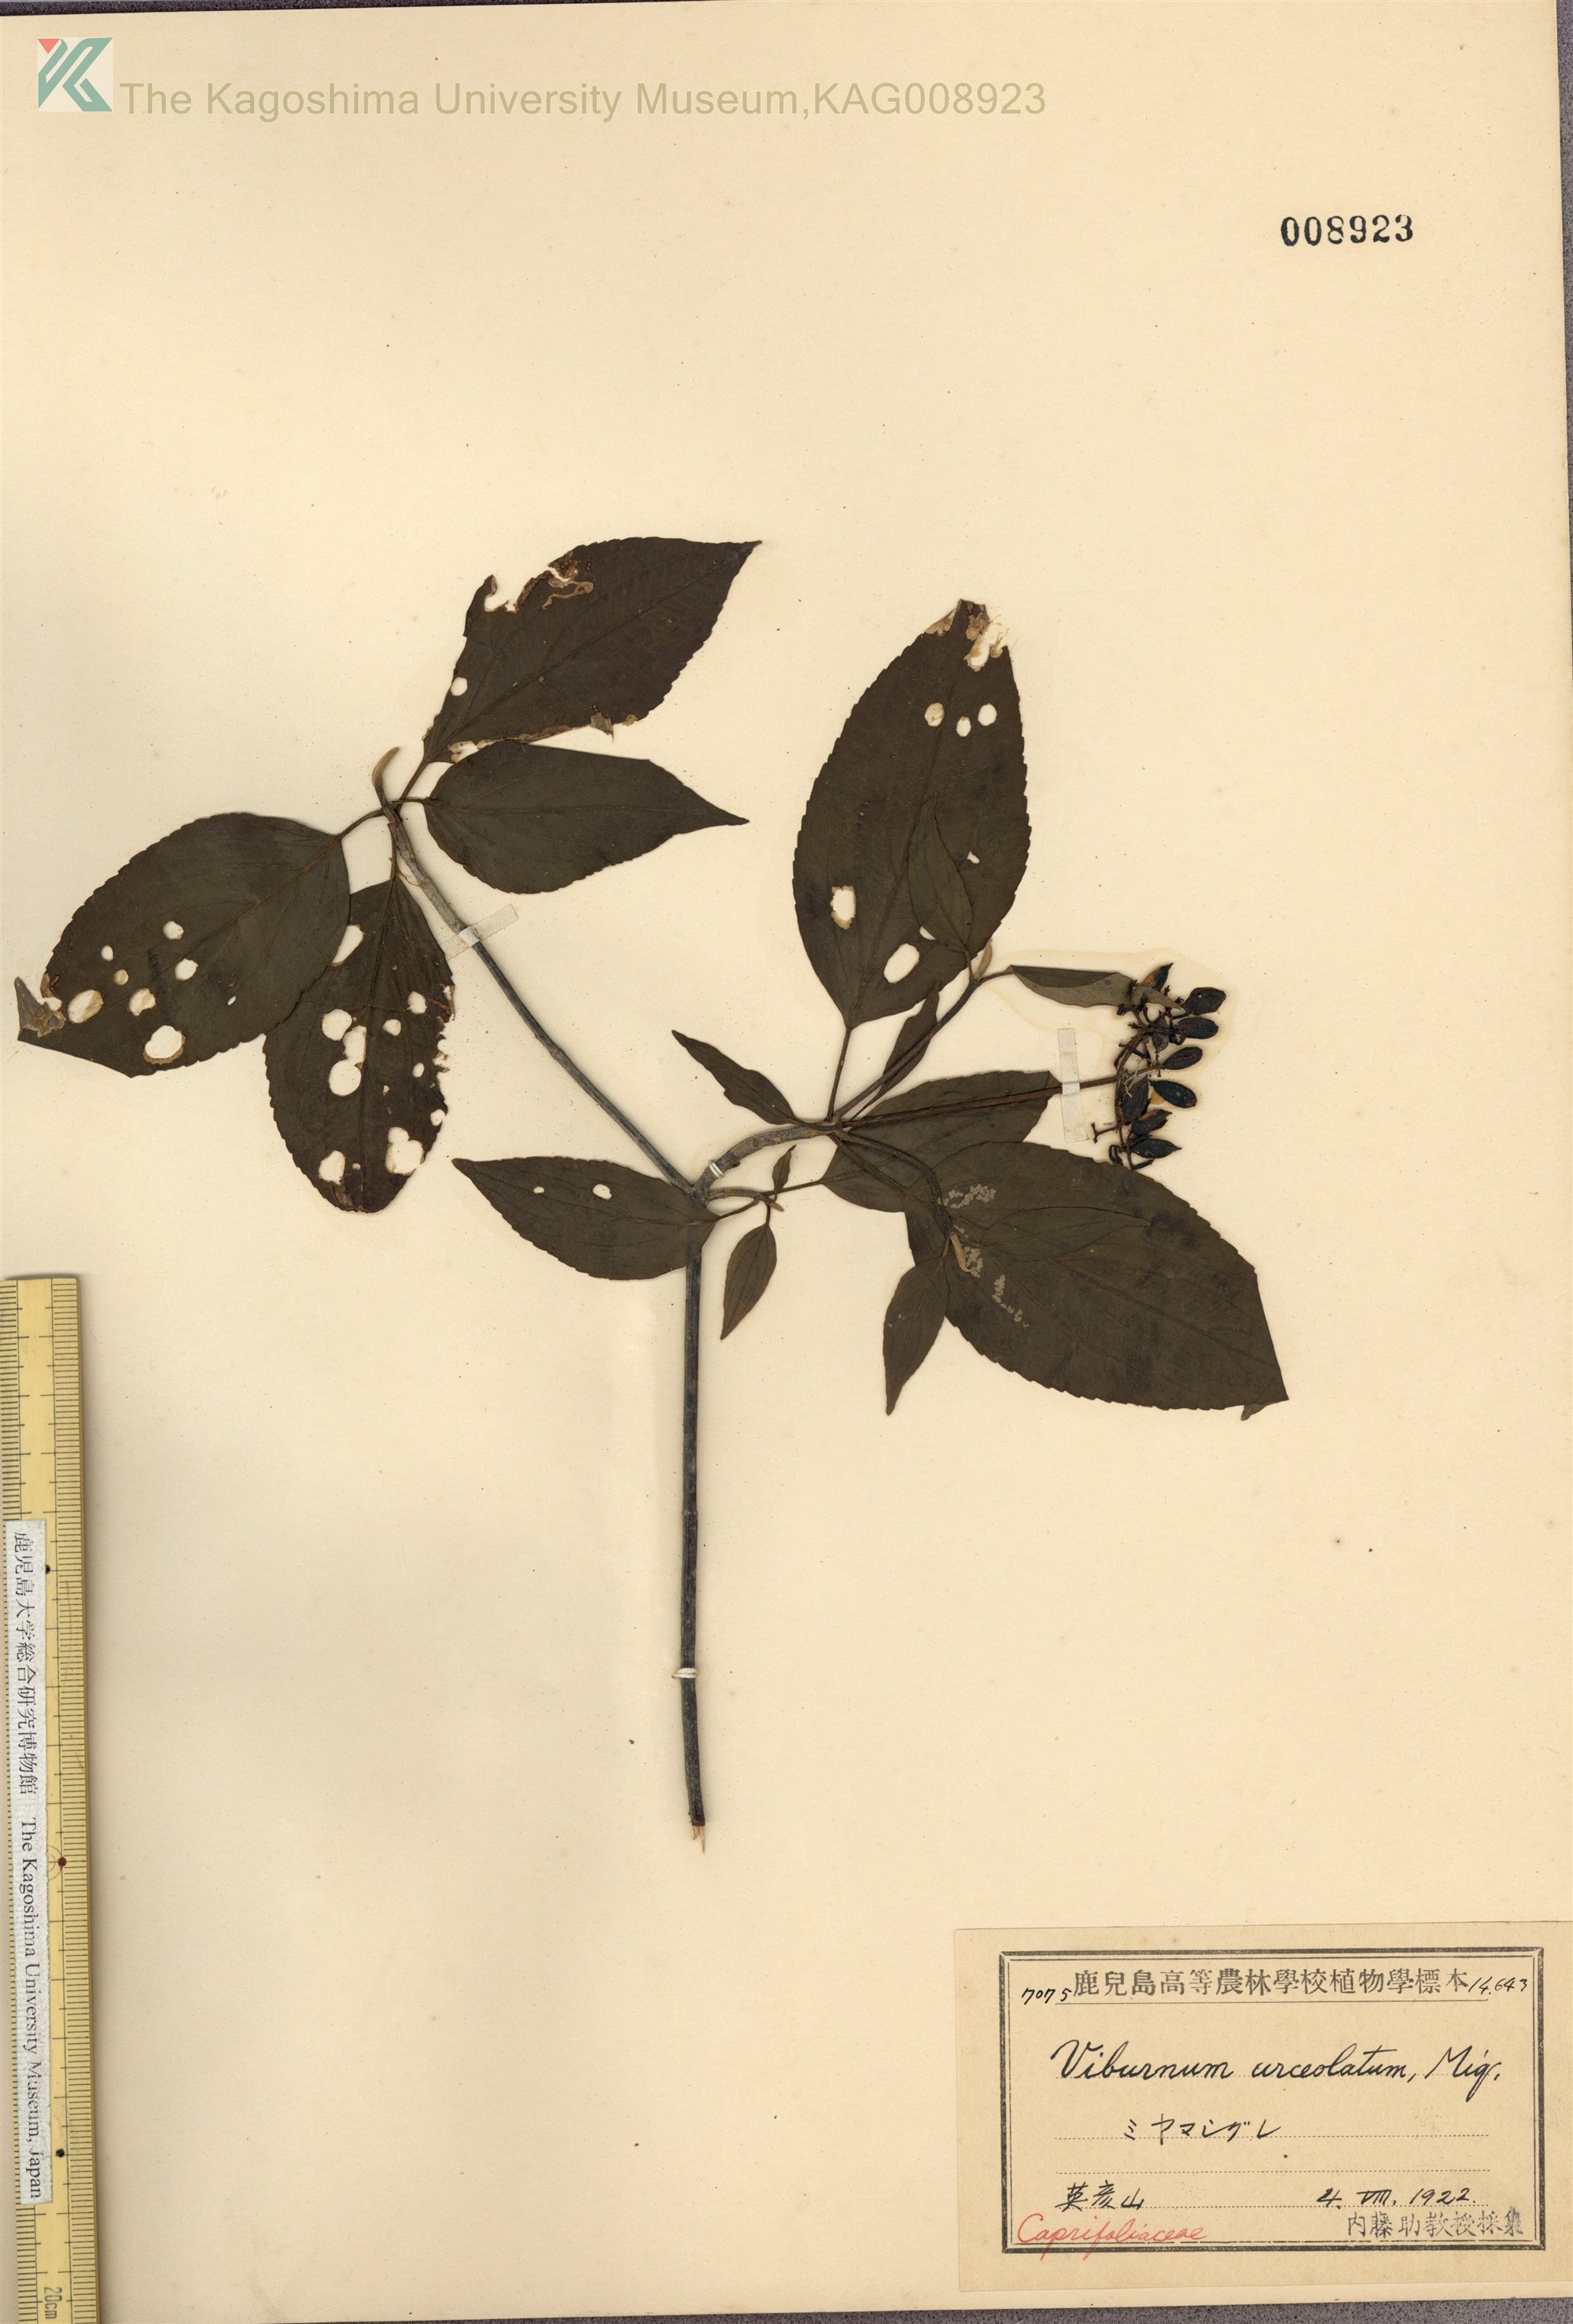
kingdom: Plantae
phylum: Tracheophyta
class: Magnoliopsida
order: Dipsacales
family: Viburnaceae
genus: Viburnum
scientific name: Viburnum urceolatum
